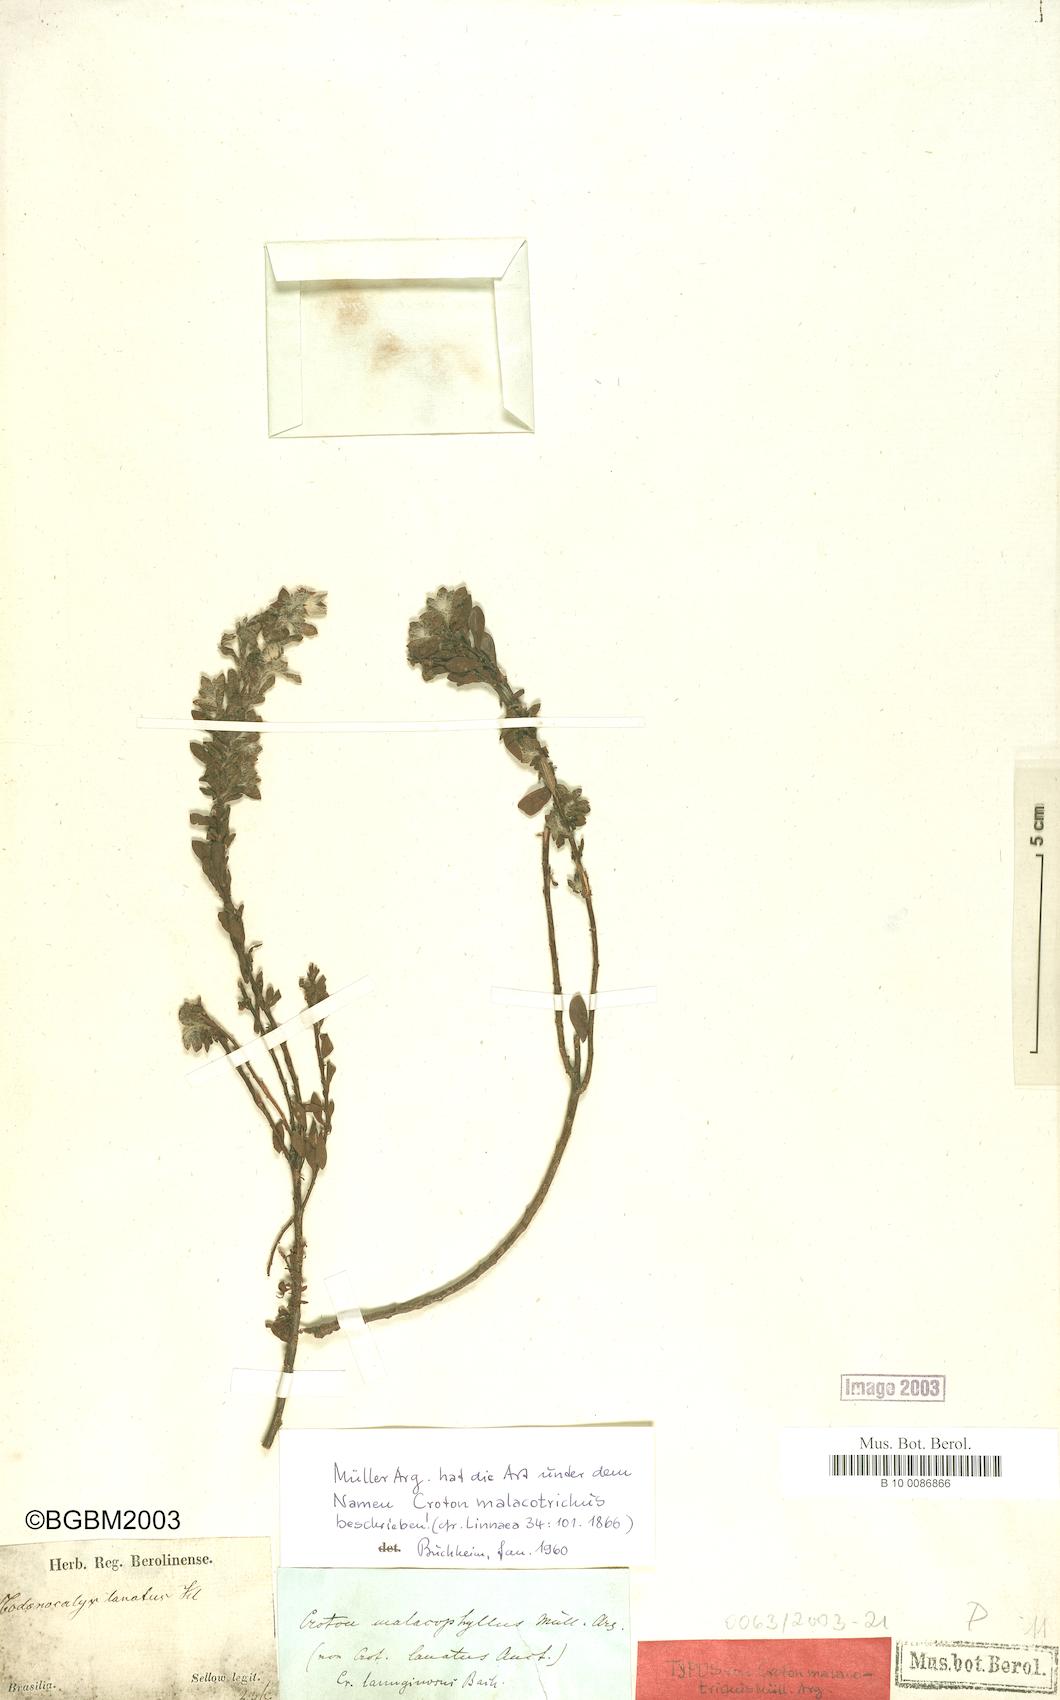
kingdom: Plantae
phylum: Tracheophyta
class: Magnoliopsida
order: Malpighiales
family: Euphorbiaceae
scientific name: Euphorbiaceae
